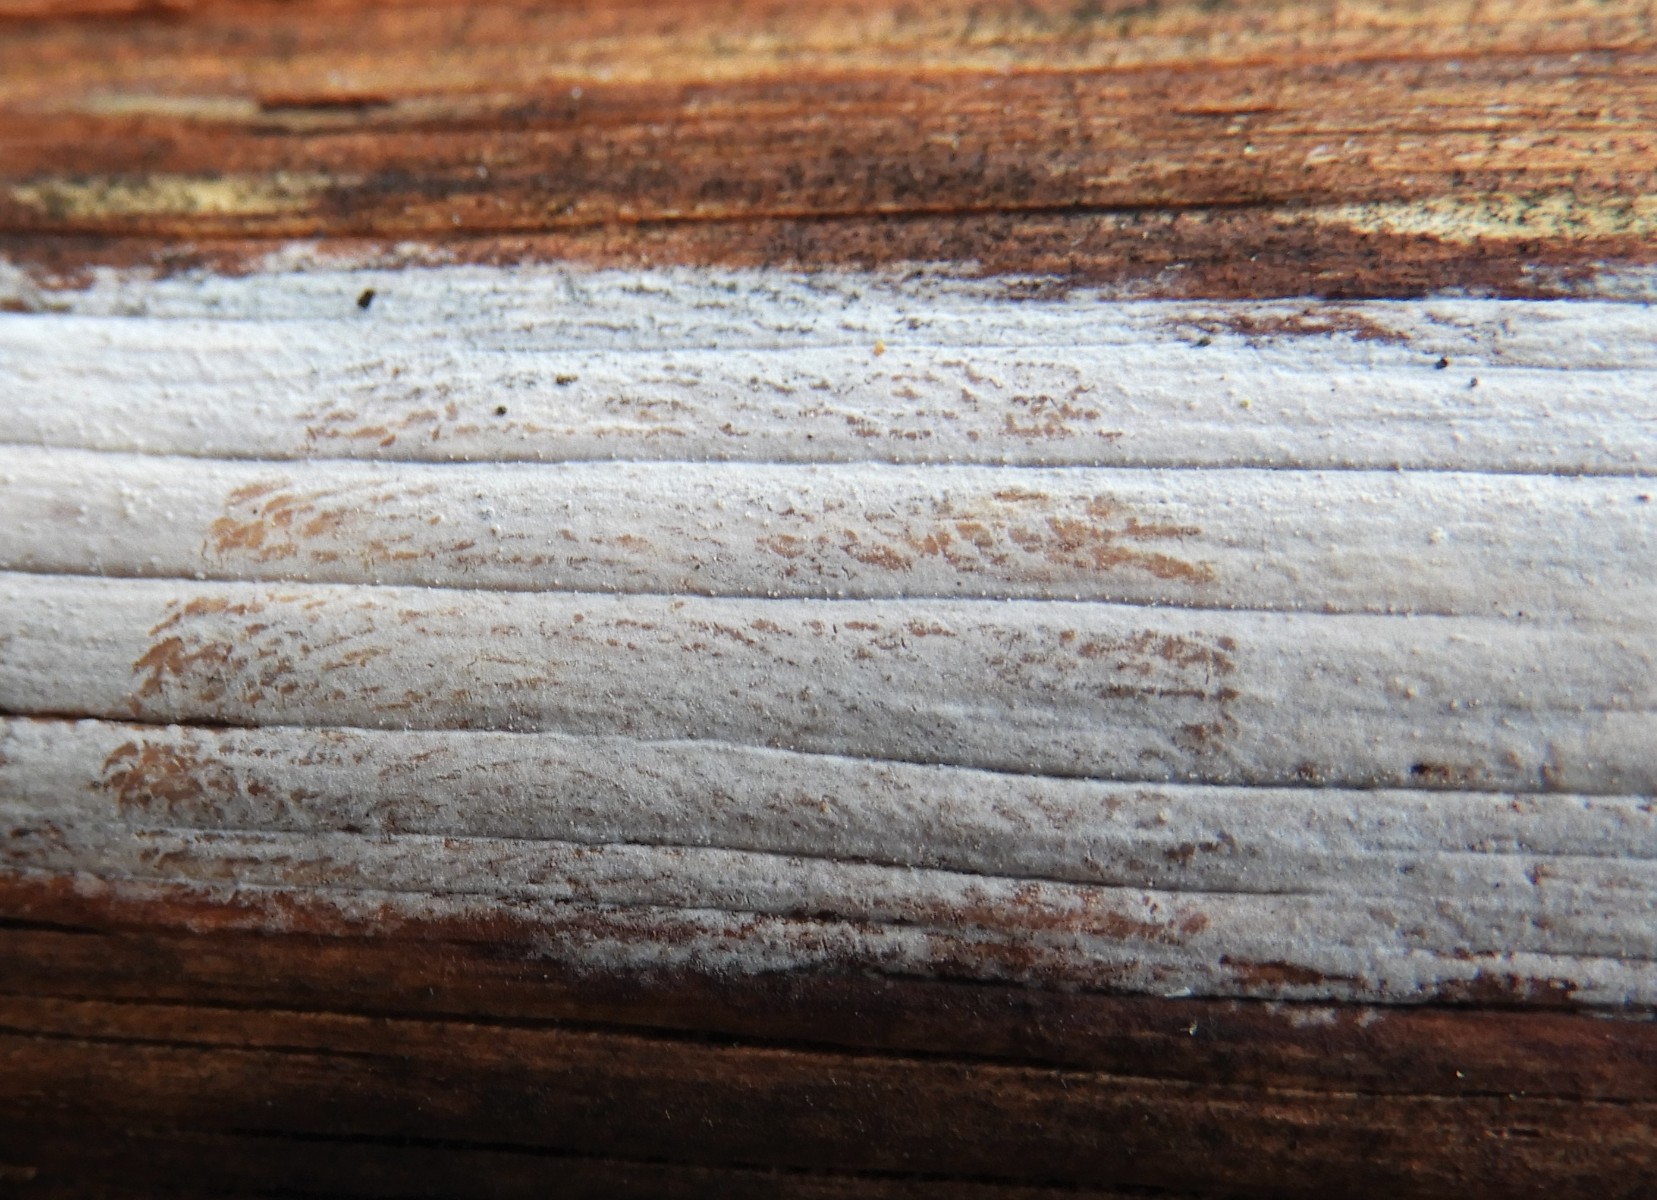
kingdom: Fungi
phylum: Basidiomycota
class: Tremellomycetes
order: Tremellales
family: Exidiaceae
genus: Exidiopsis
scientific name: Exidiopsis effusa
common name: smuk bævrehinde
